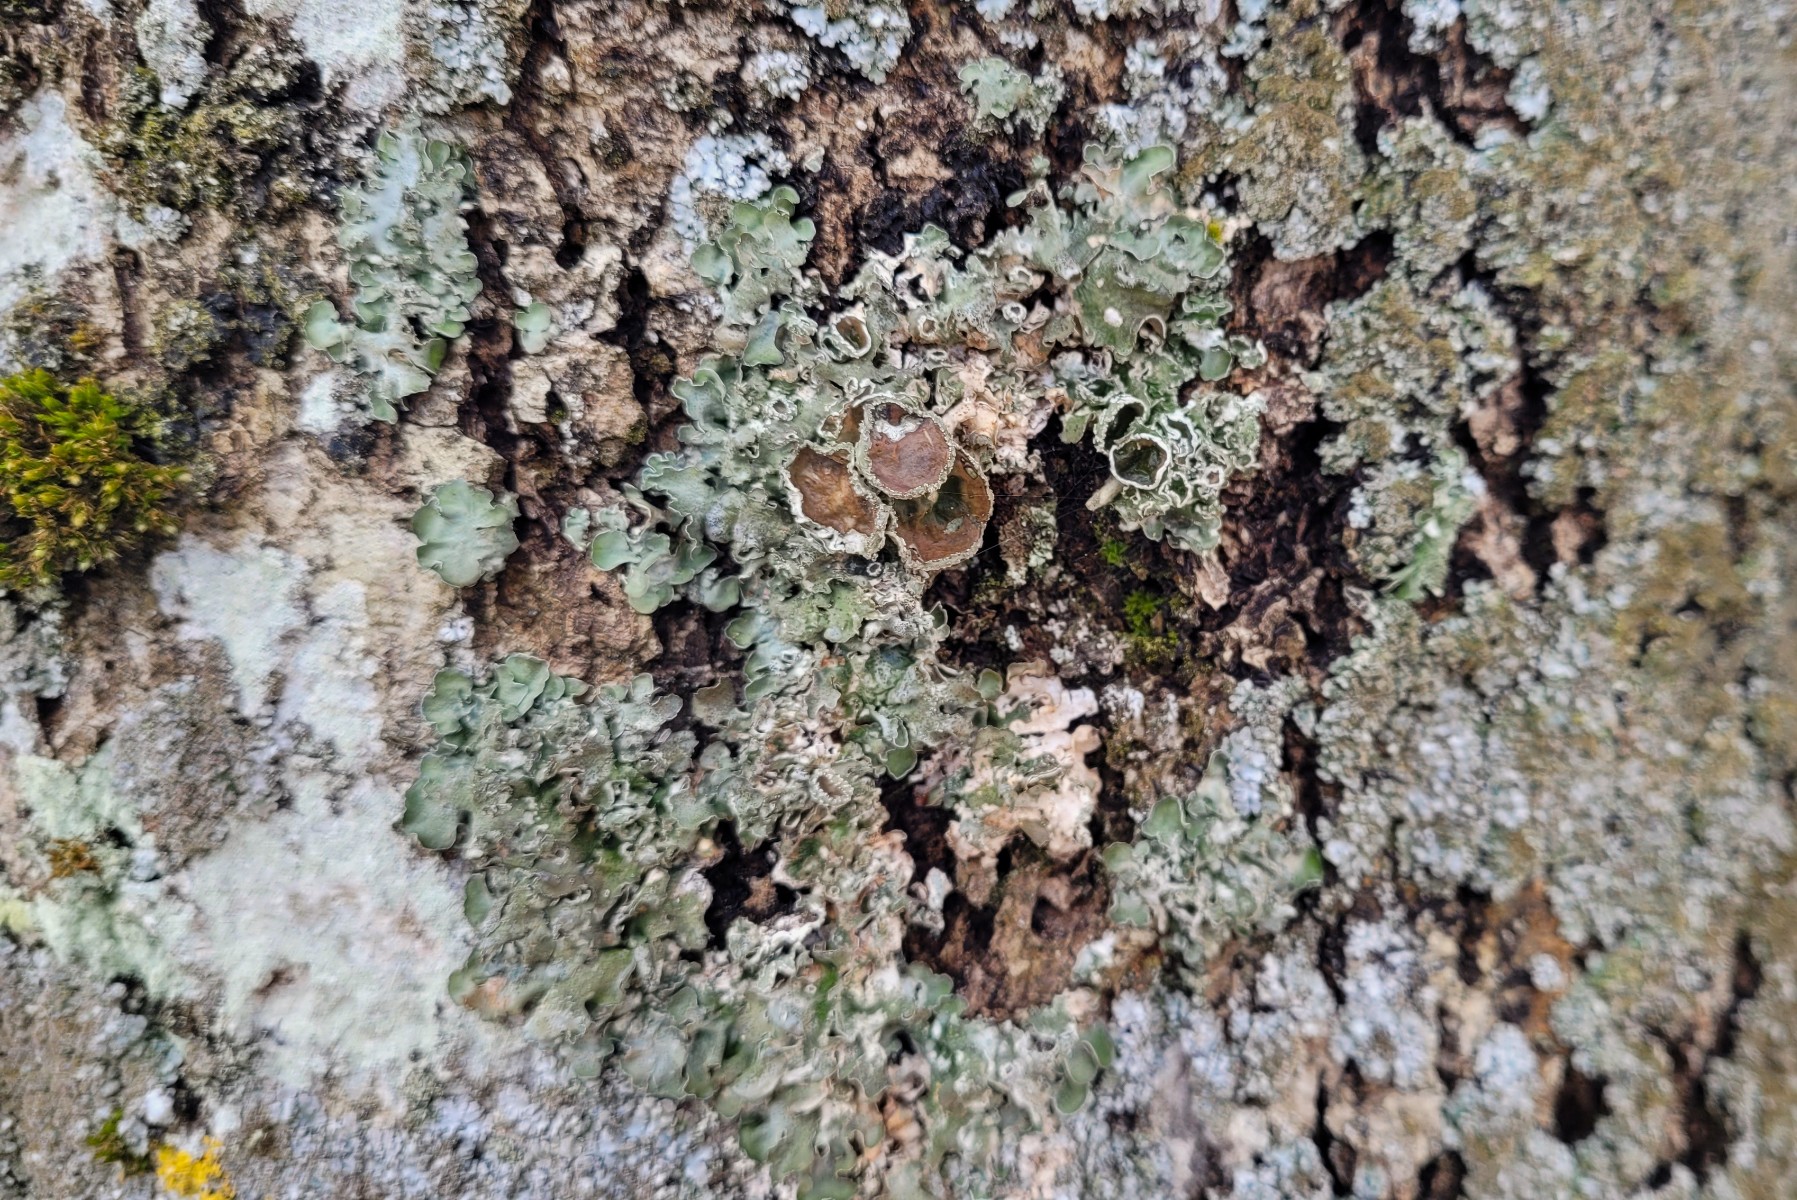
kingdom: Fungi
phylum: Ascomycota
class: Lecanoromycetes
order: Lecanorales
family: Parmeliaceae
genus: Pleurosticta
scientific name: Pleurosticta acetabulum
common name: stor skållav
